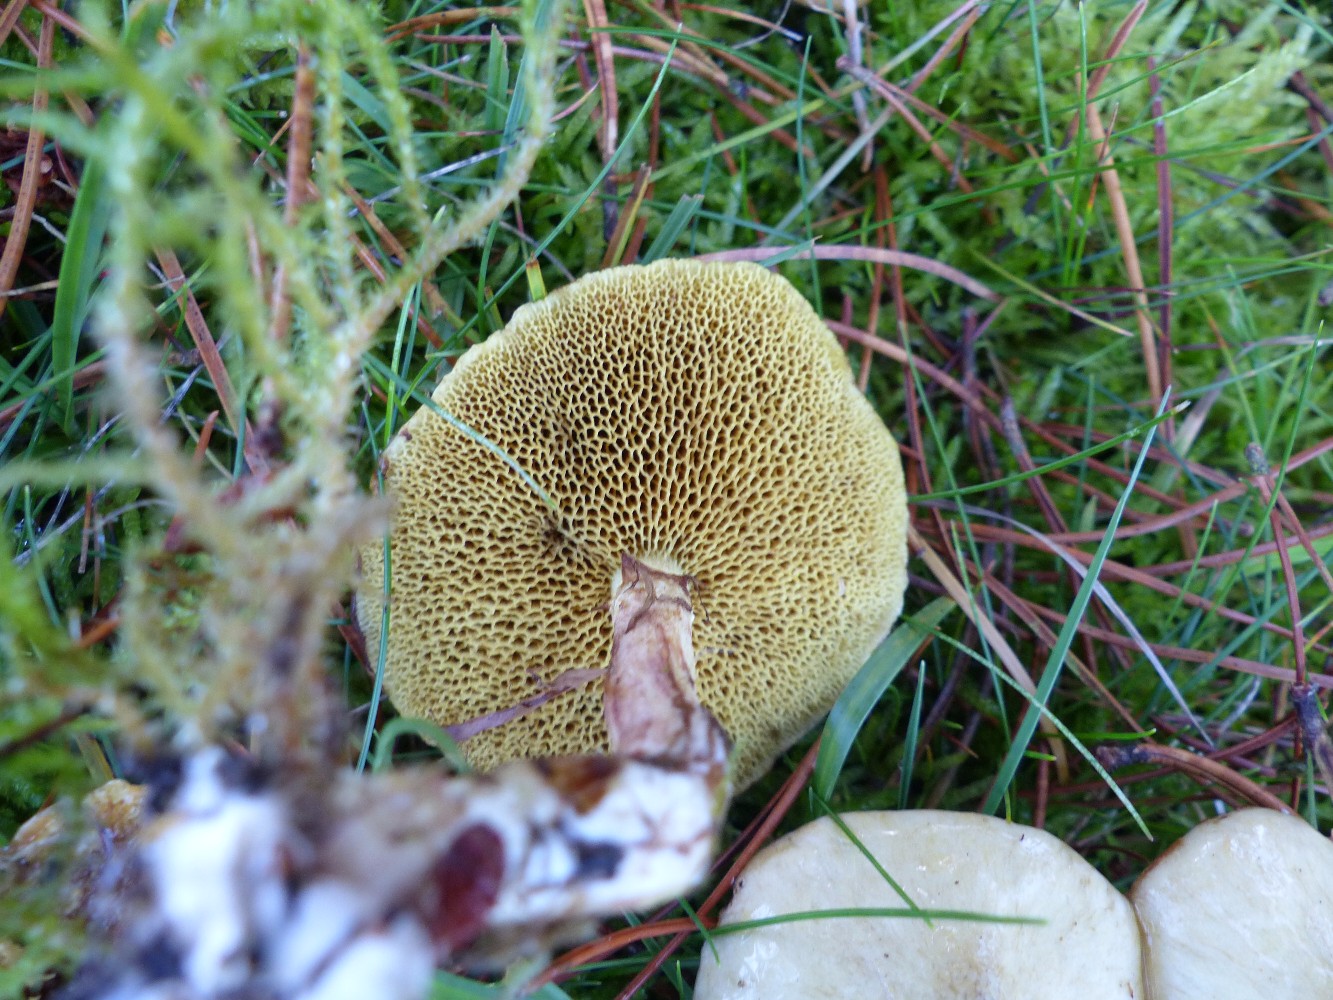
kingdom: Fungi
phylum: Basidiomycota
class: Agaricomycetes
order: Boletales
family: Suillaceae
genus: Suillus
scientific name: Suillus bovinus
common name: grovporet slimrørhat
